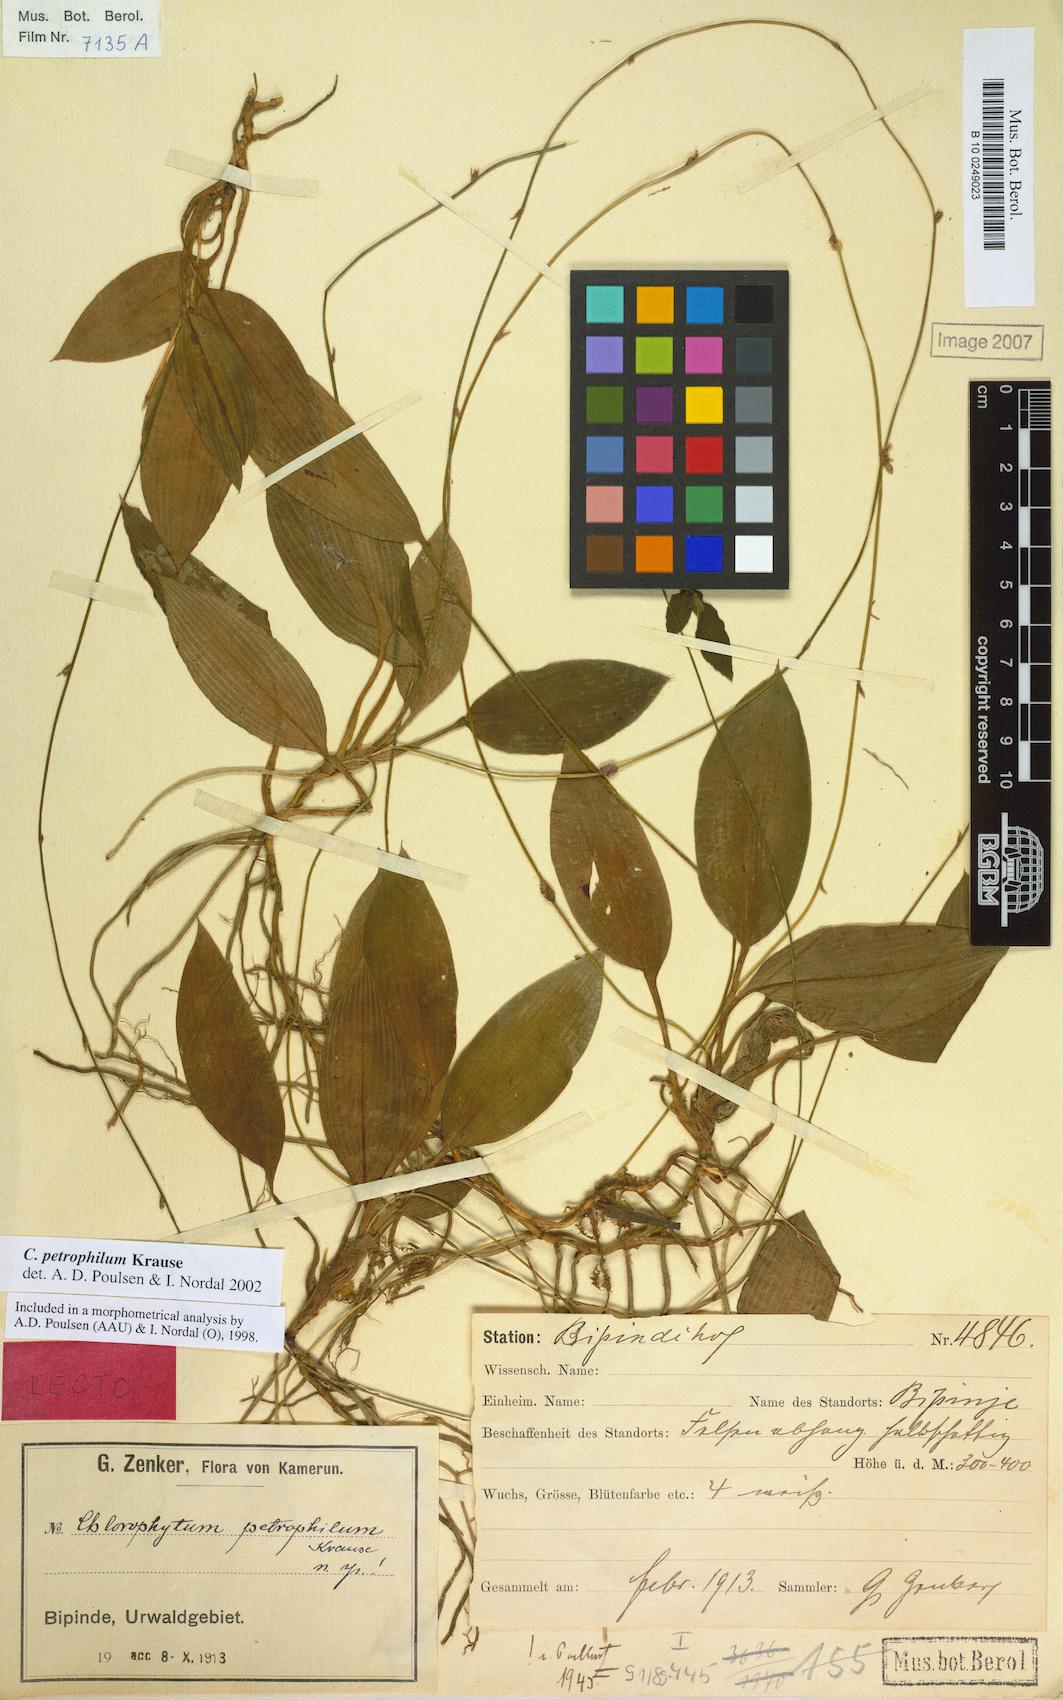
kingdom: Plantae
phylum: Tracheophyta
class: Liliopsida
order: Asparagales
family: Asparagaceae
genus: Chlorophytum
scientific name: Chlorophytum petrophilum
